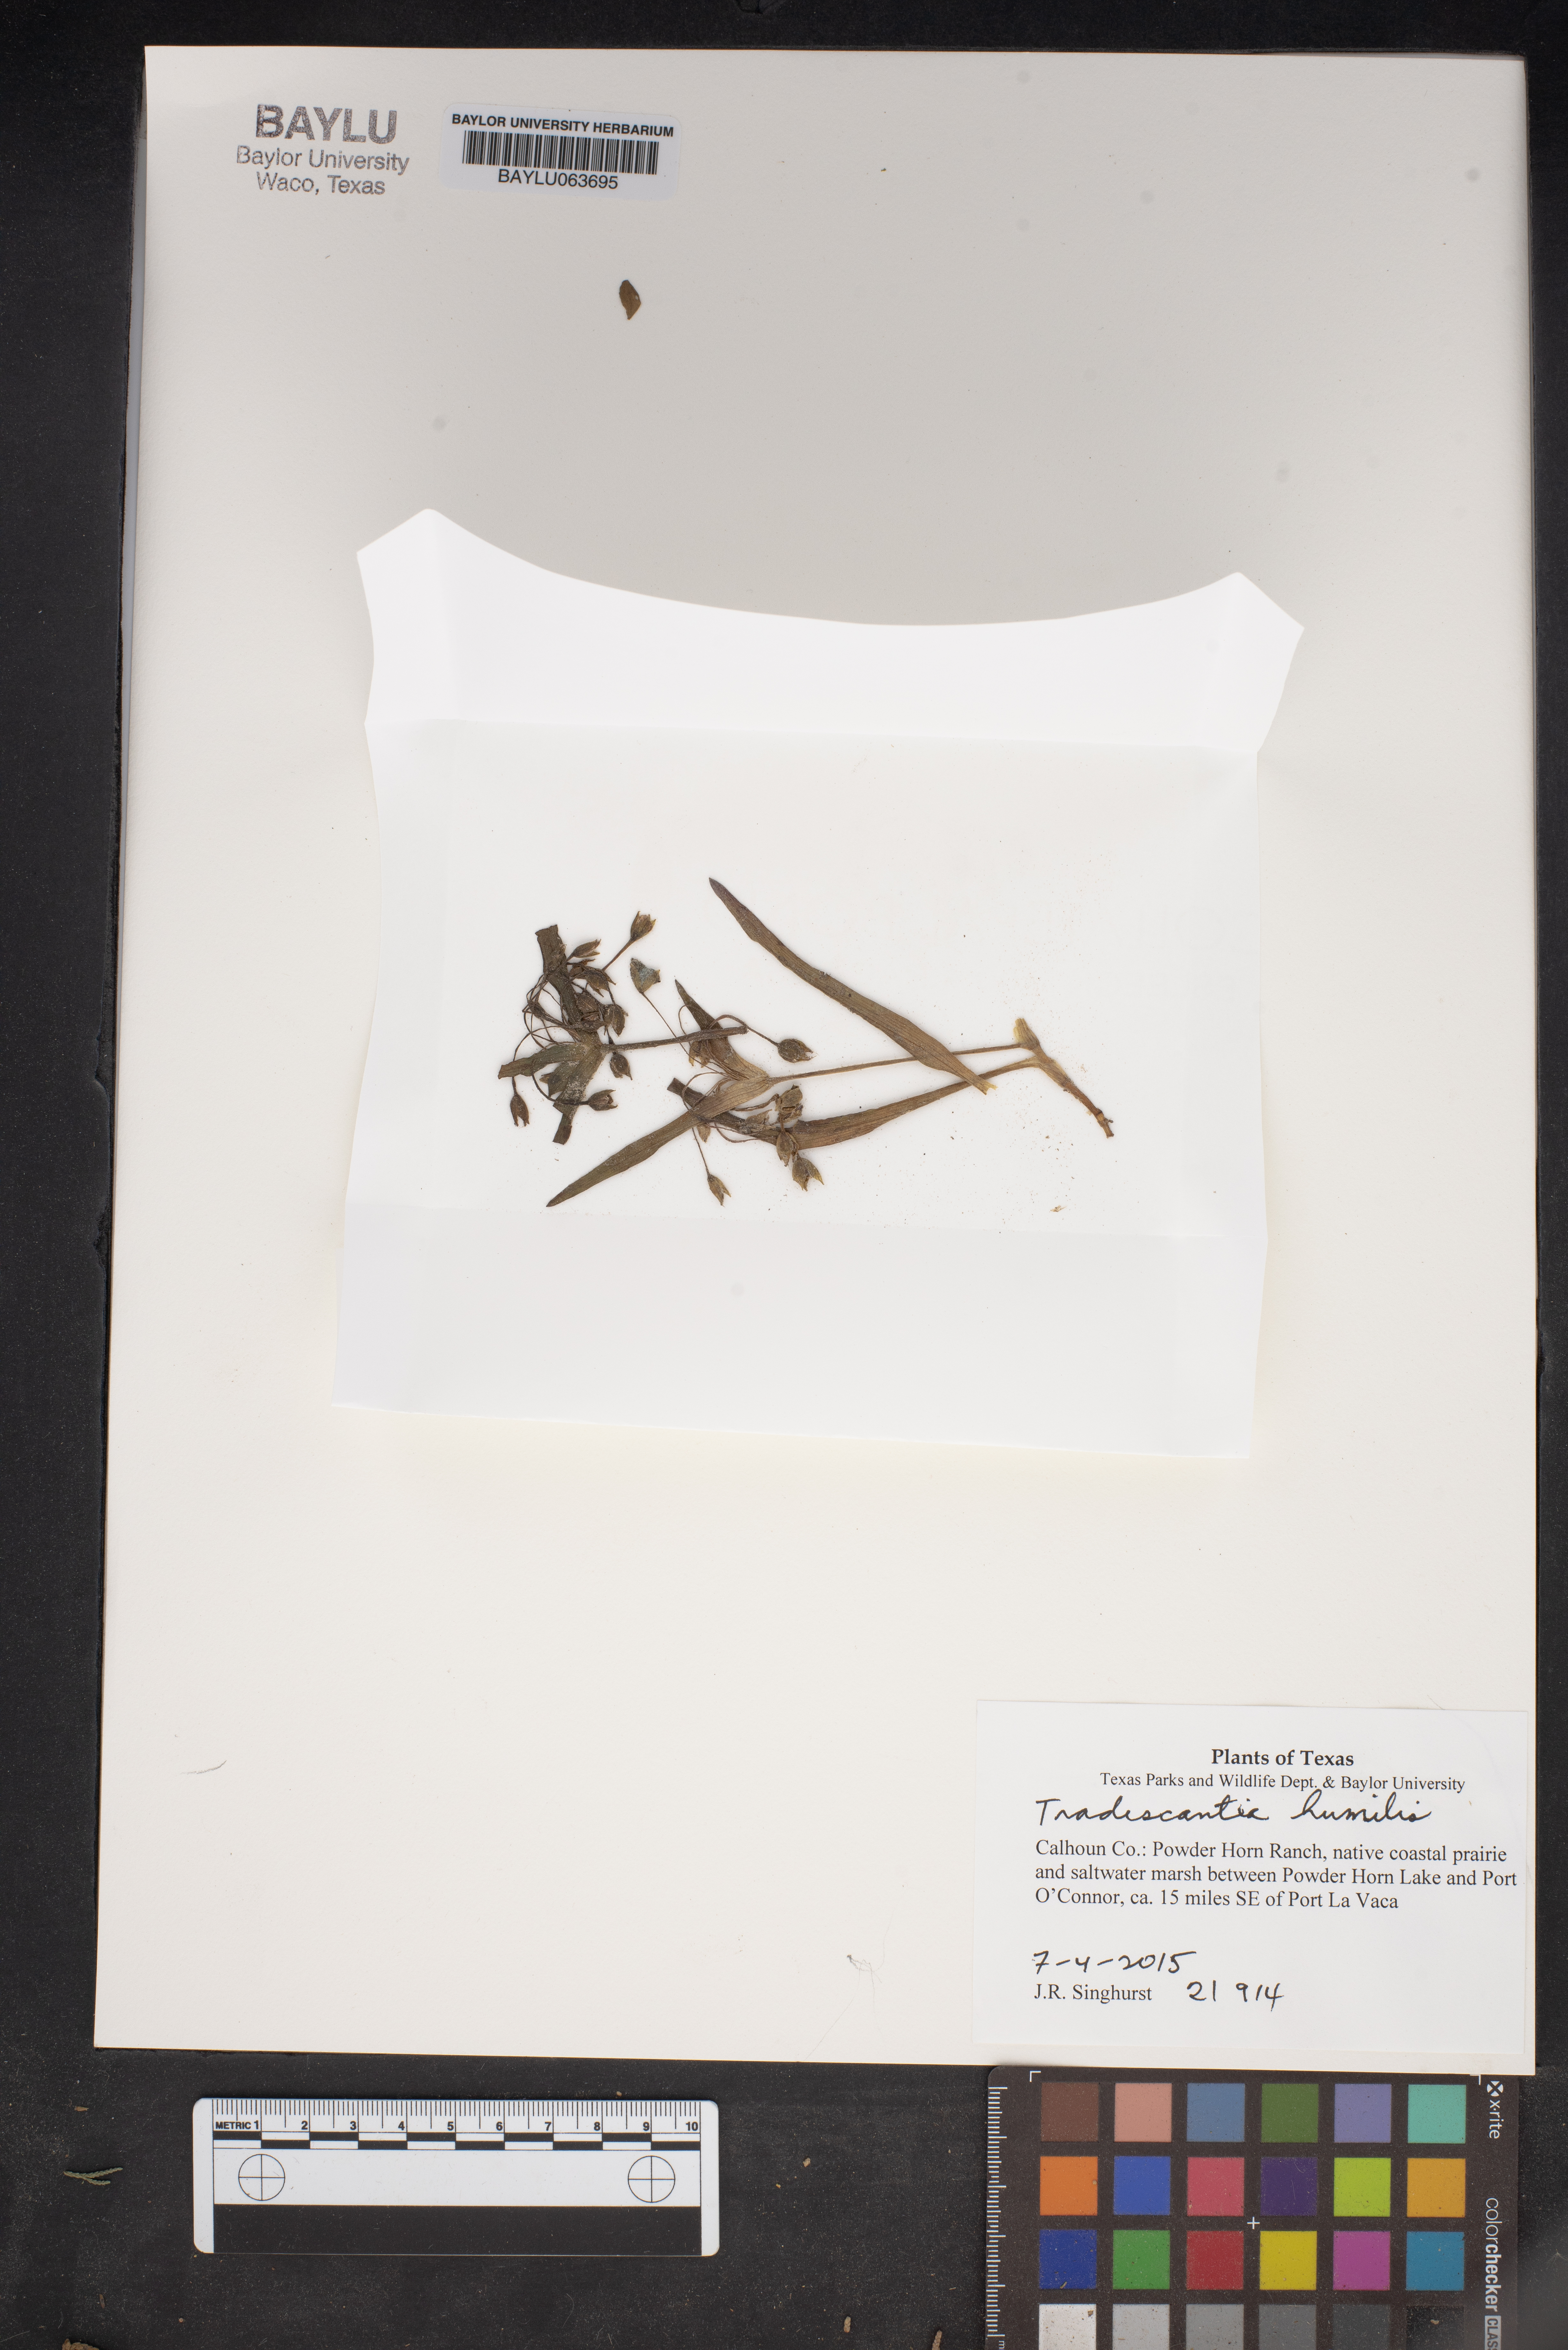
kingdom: Plantae
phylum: Tracheophyta
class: Liliopsida
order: Commelinales
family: Commelinaceae
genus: Tradescantia
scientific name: Tradescantia humilis
